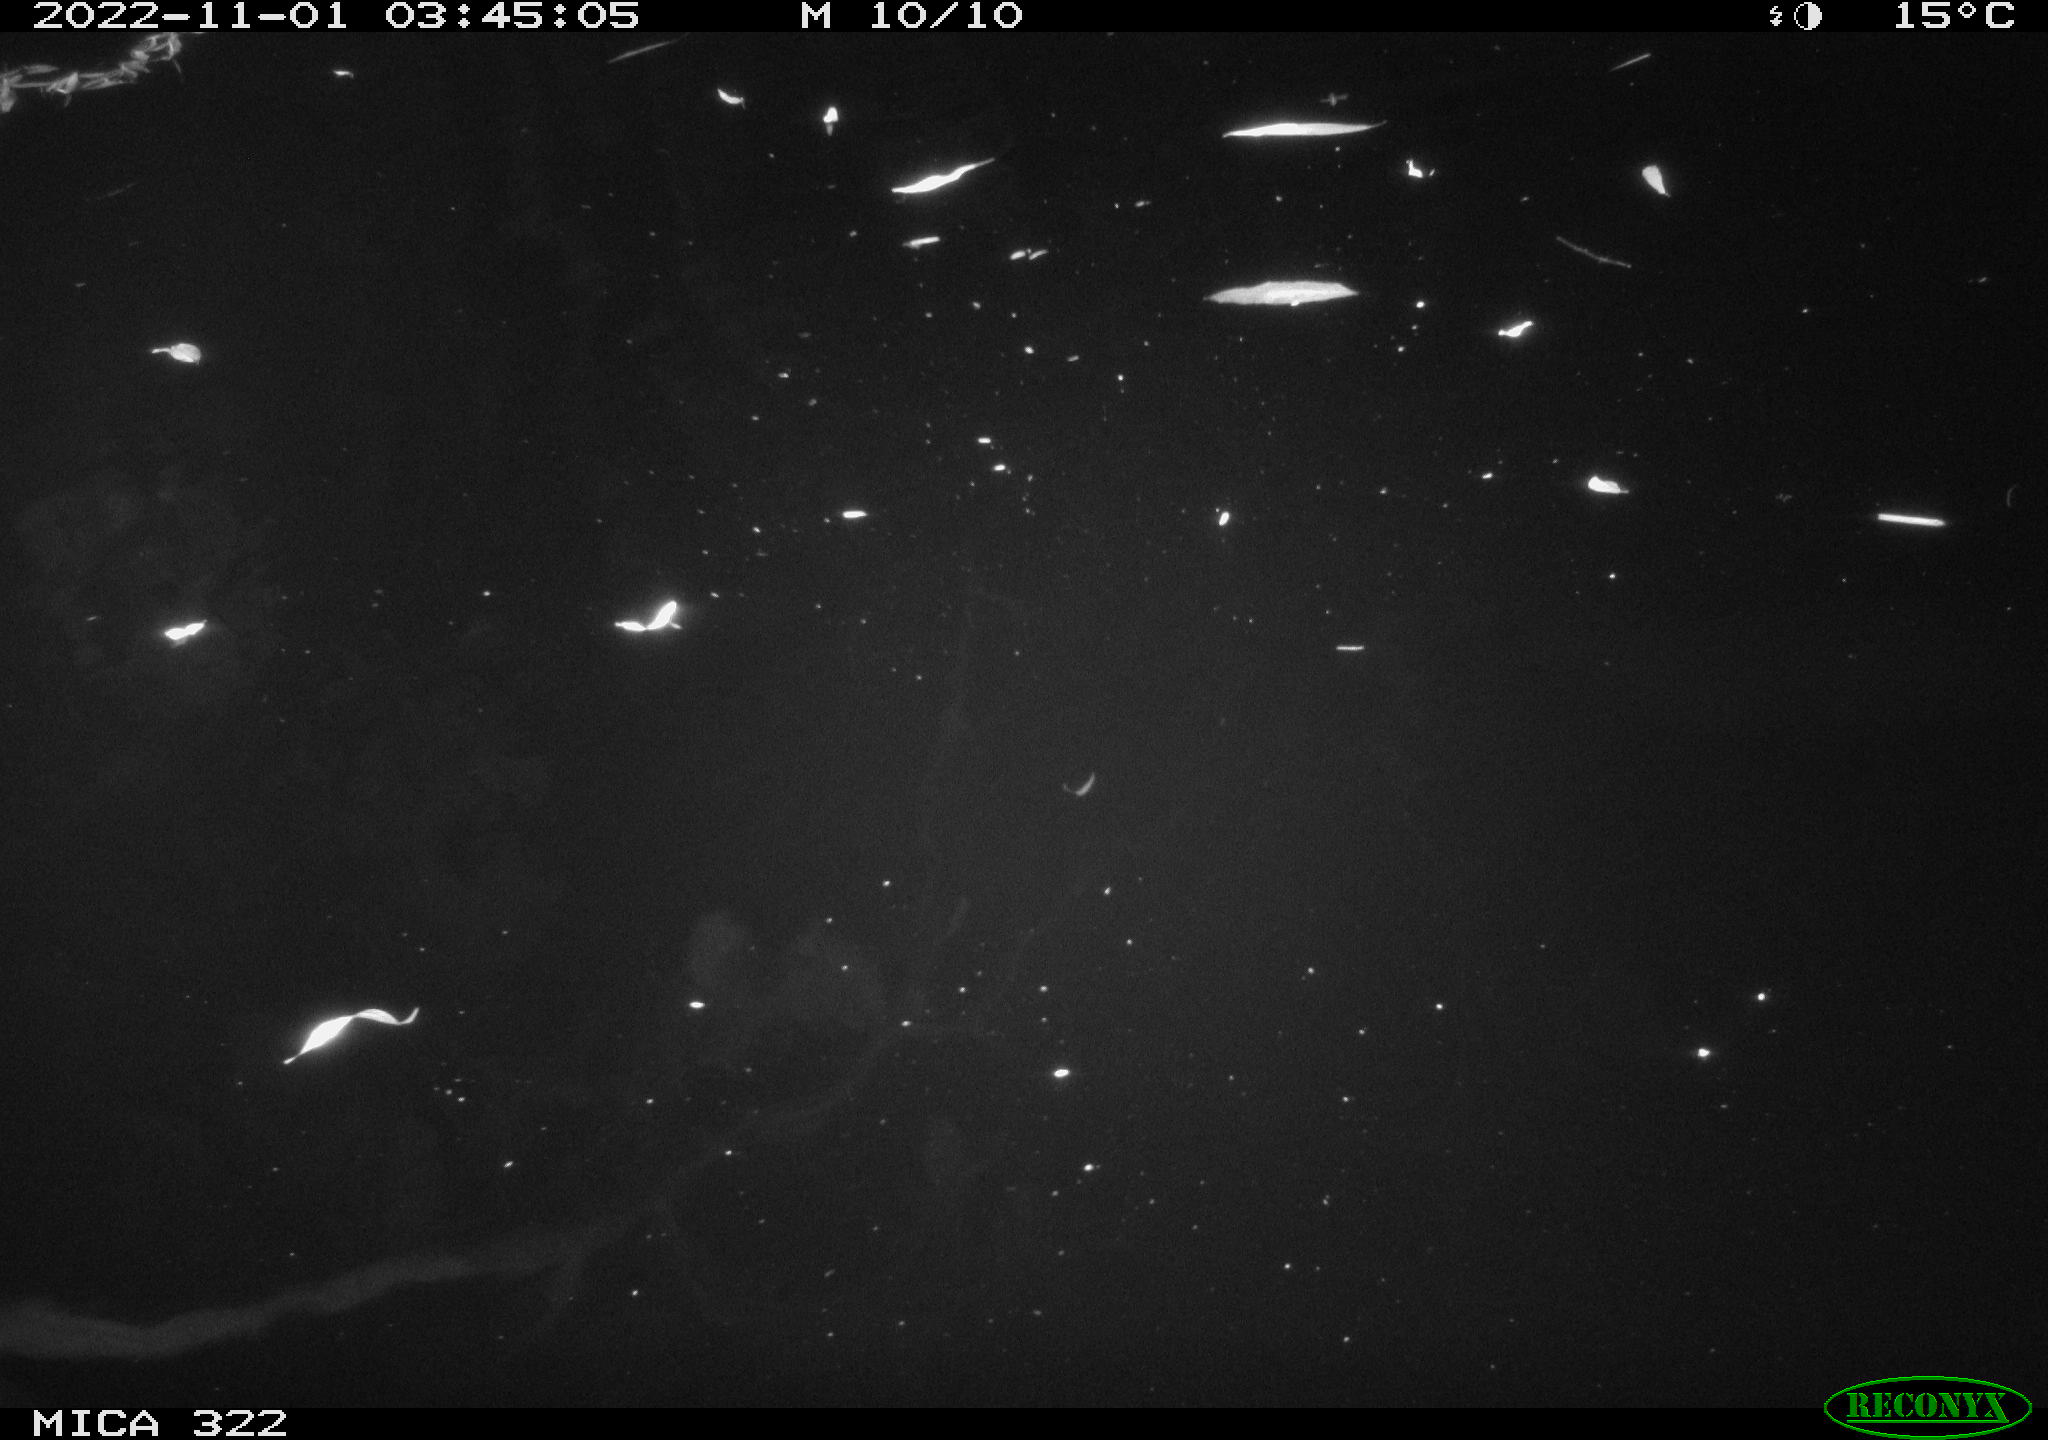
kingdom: Animalia
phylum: Chordata
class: Mammalia
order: Rodentia
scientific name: Rodentia
